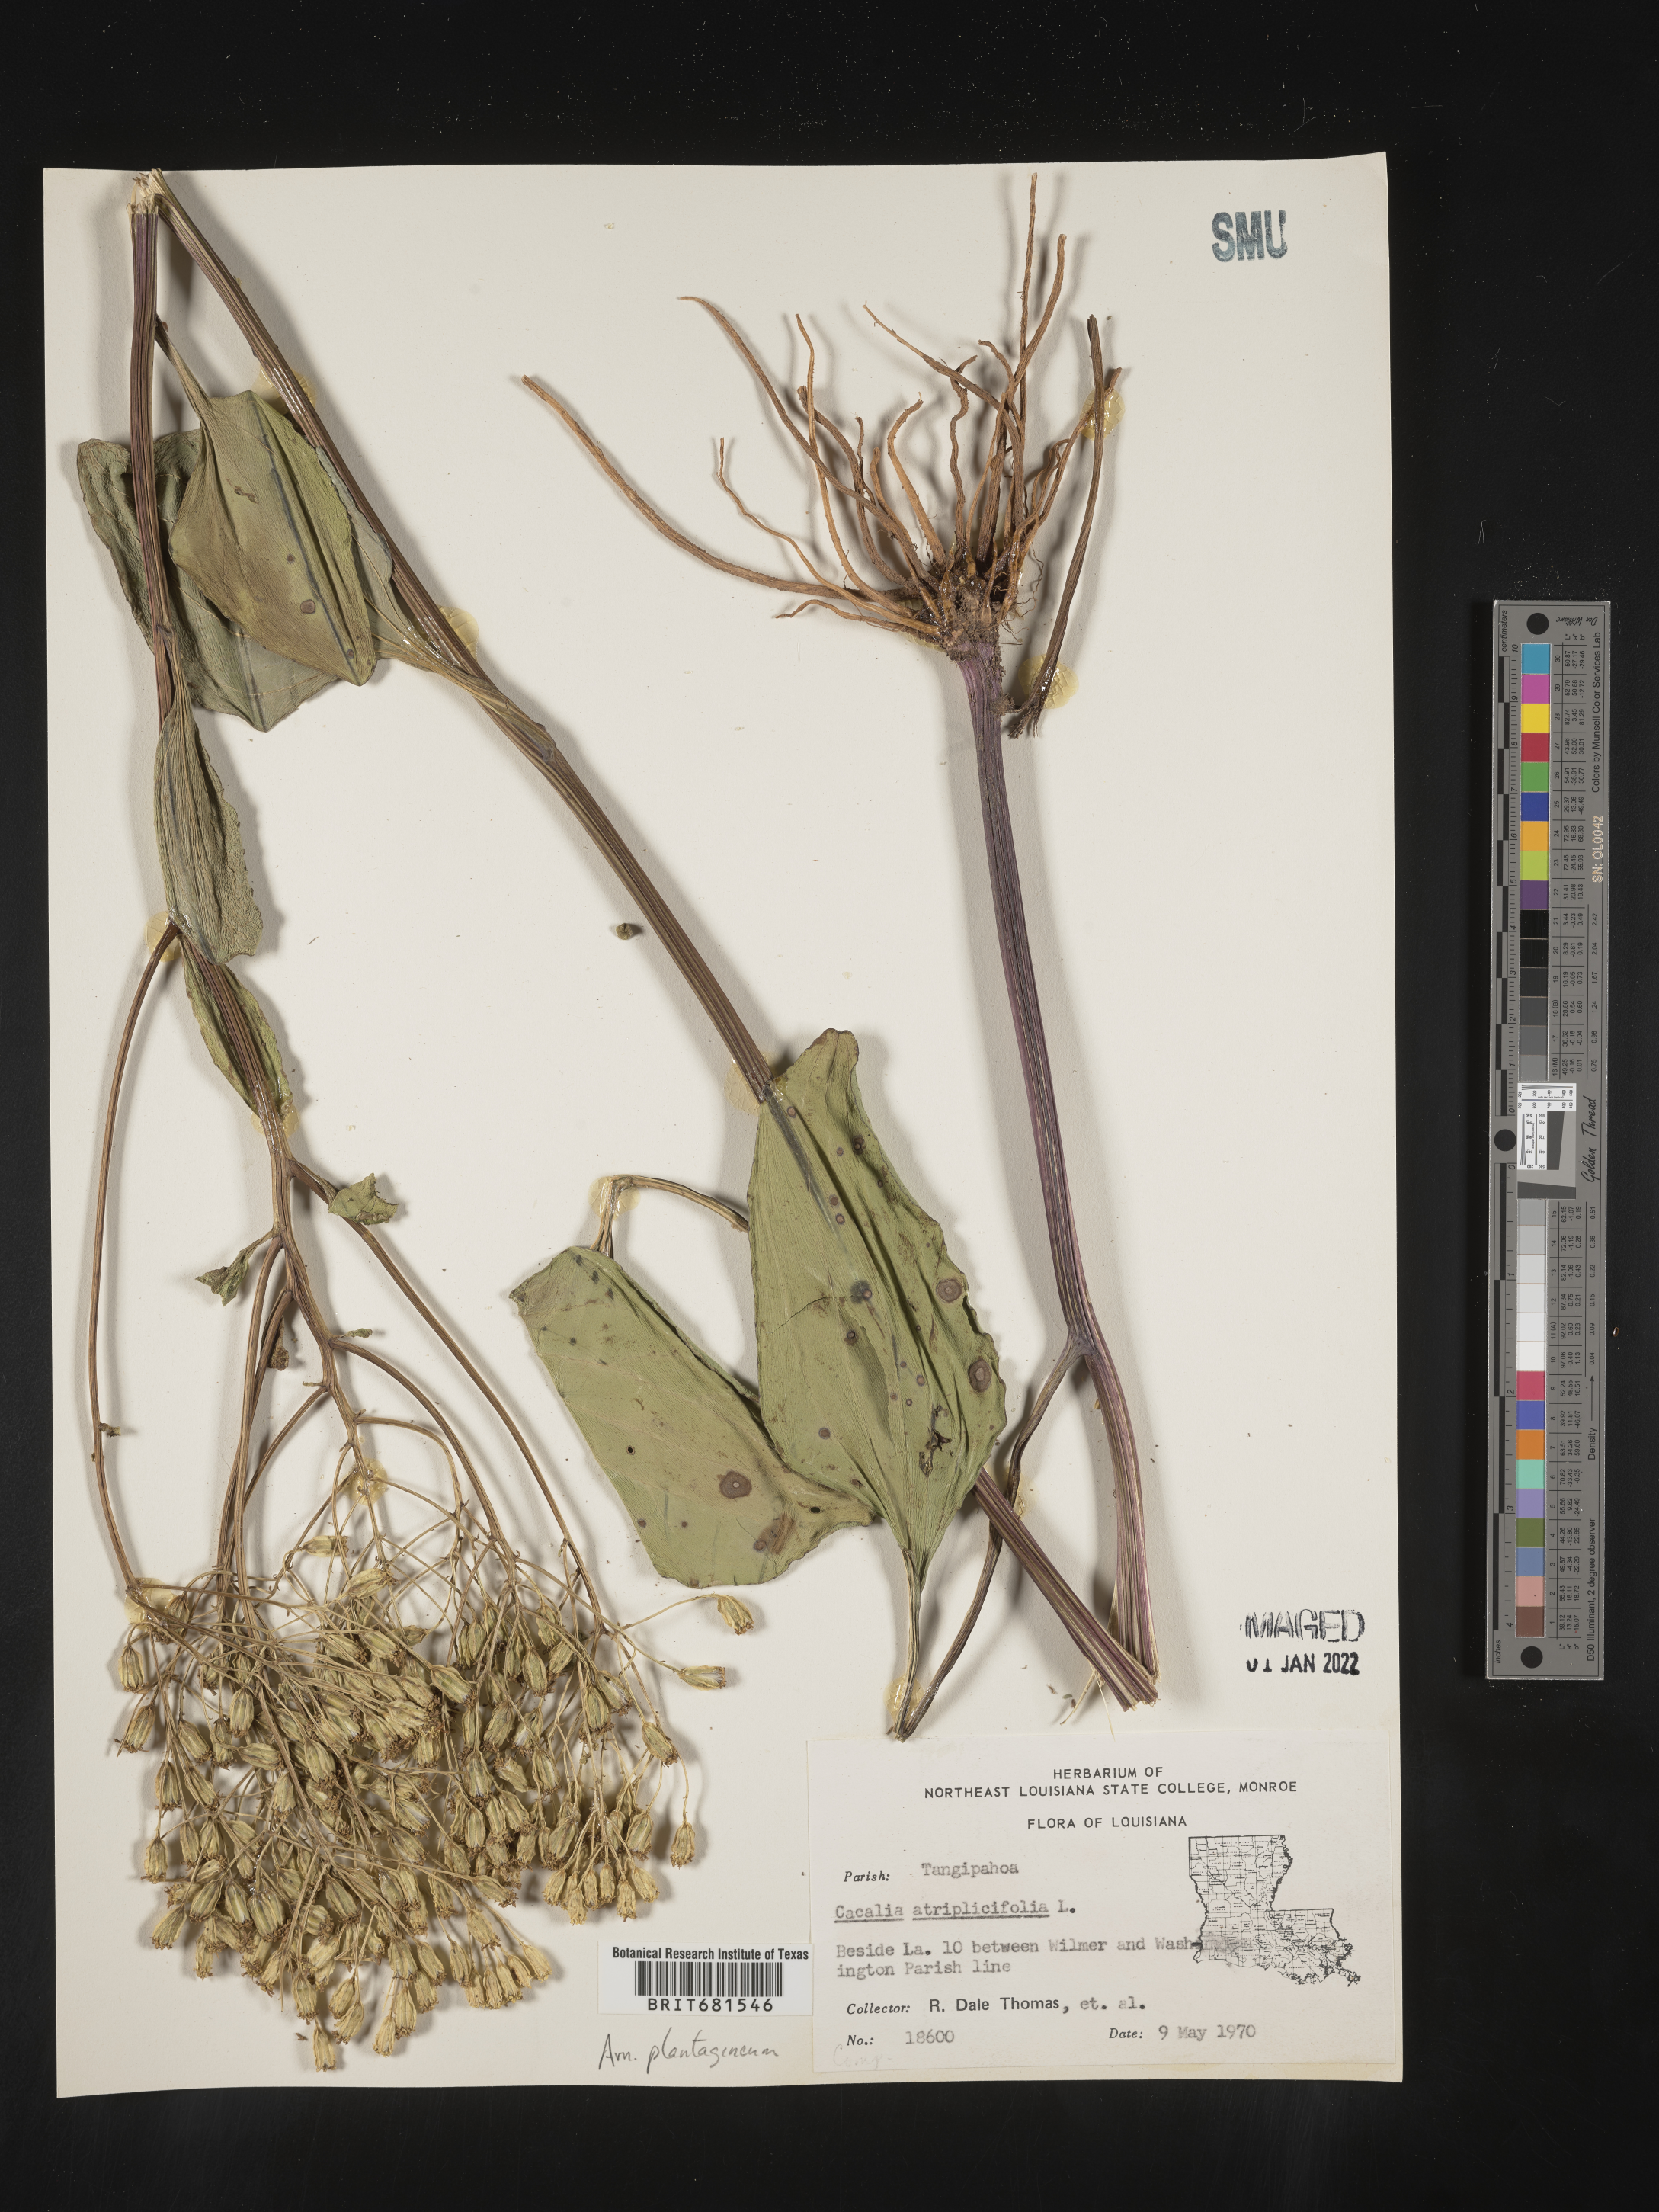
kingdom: Plantae
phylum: Tracheophyta
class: Magnoliopsida
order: Asterales
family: Asteraceae
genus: Arnoglossum
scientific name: Arnoglossum plantagineum
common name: Groove-stemmed indian-plantain
